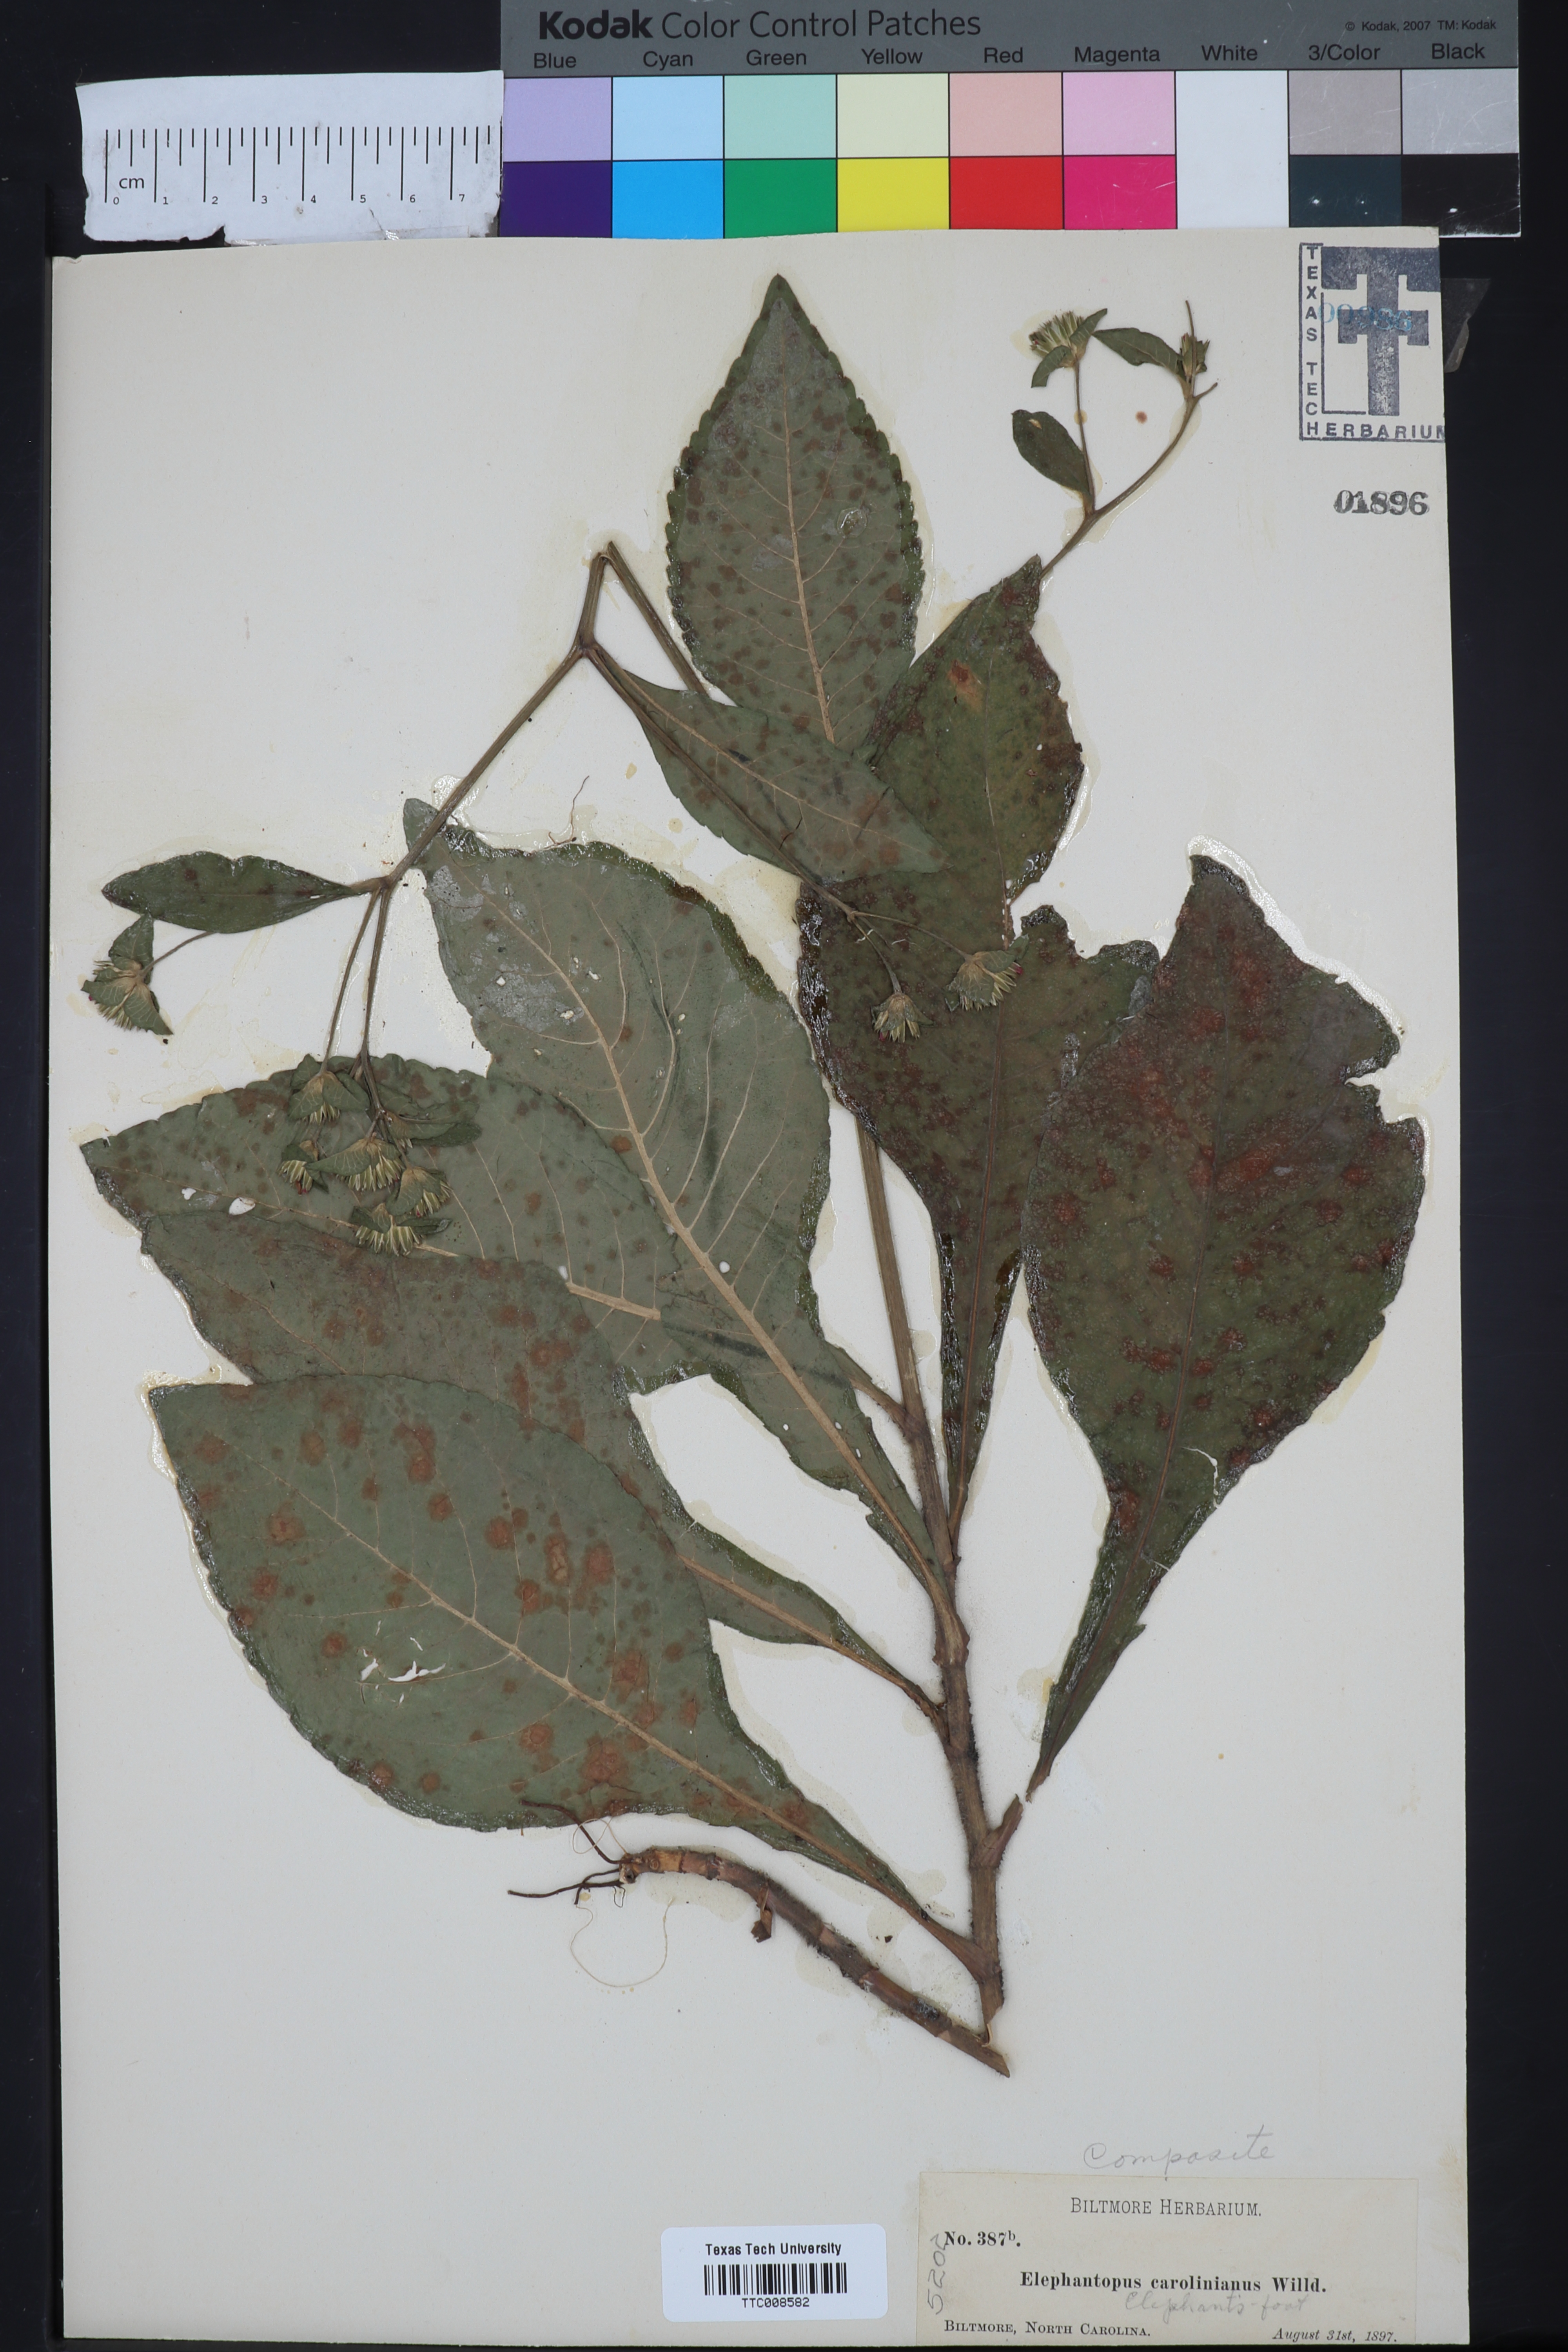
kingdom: Plantae
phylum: Tracheophyta
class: Magnoliopsida
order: Asterales
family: Asteraceae
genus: Elephantopus
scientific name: Elephantopus carolinianus
